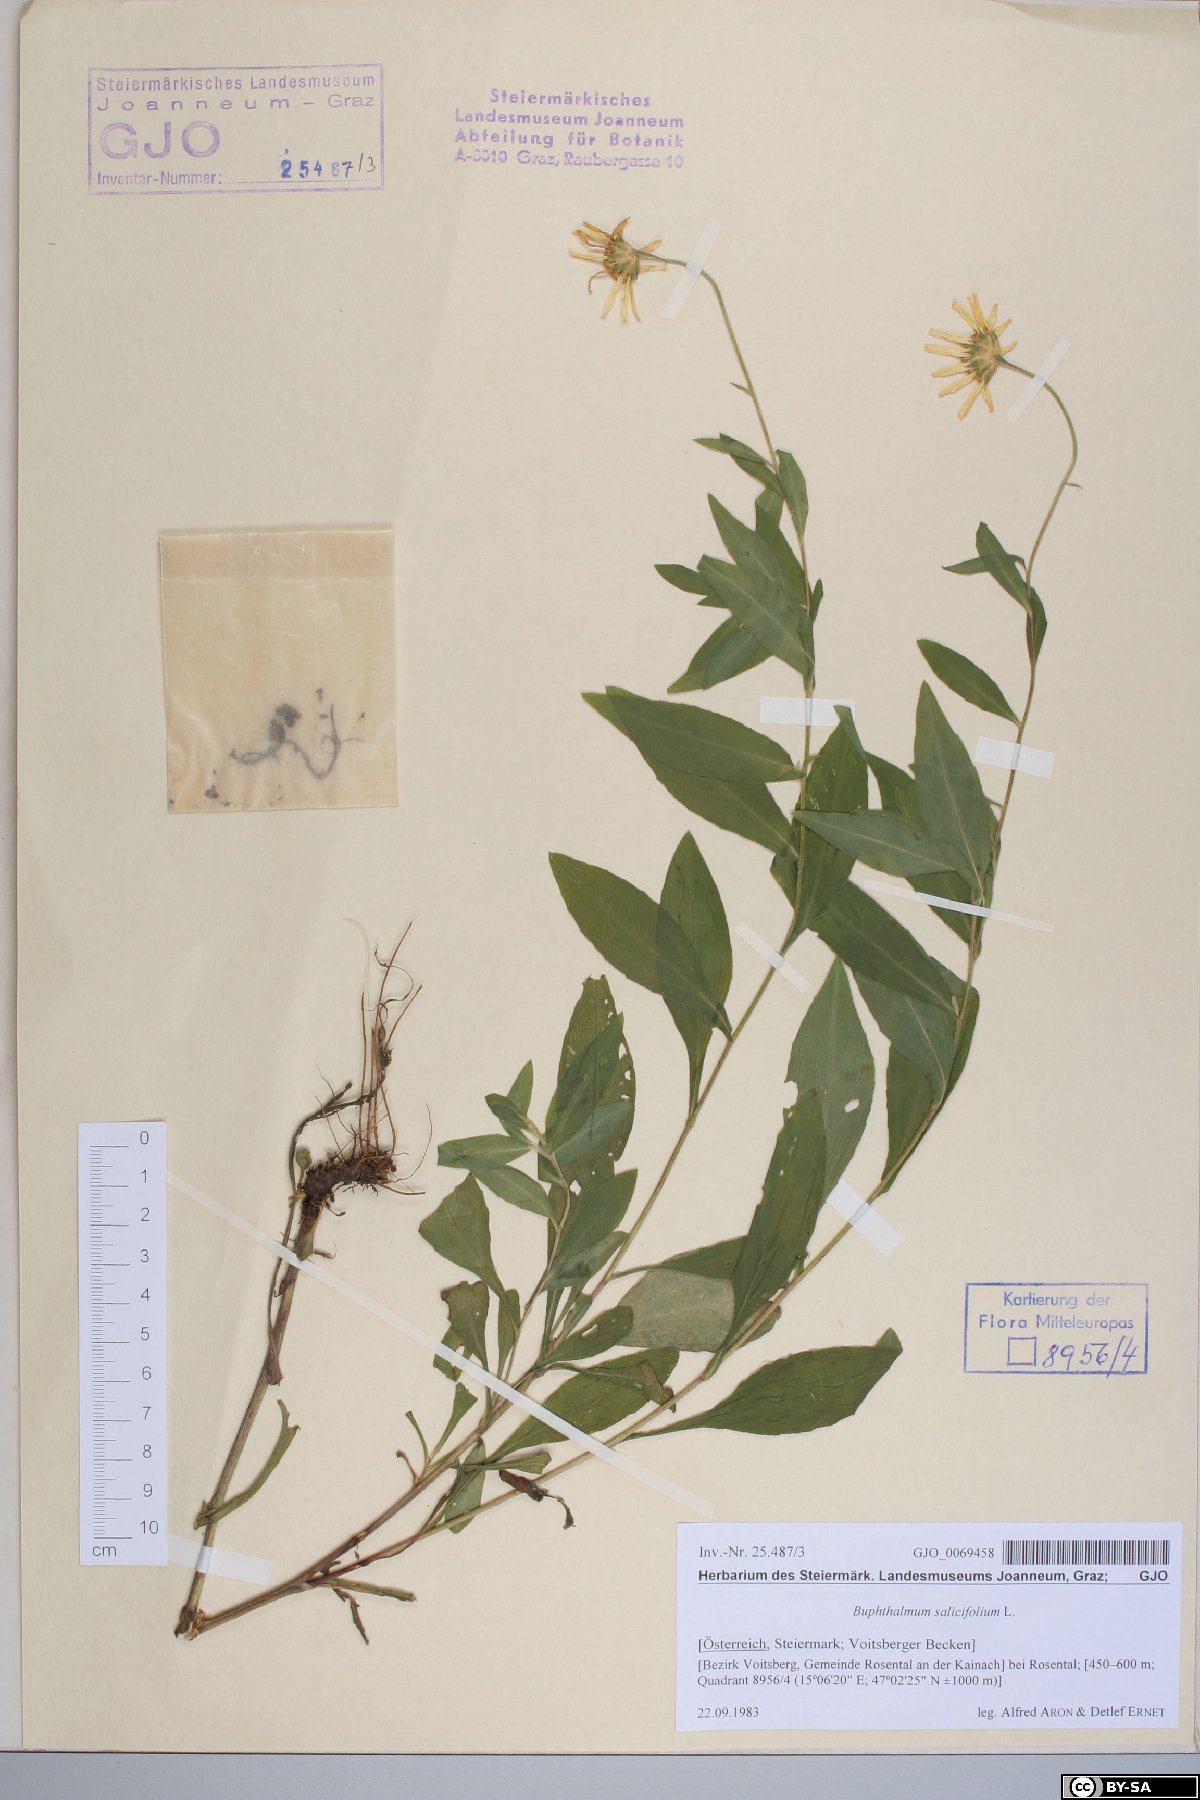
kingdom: Plantae
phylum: Tracheophyta
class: Magnoliopsida
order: Asterales
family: Asteraceae
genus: Buphthalmum
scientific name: Buphthalmum salicifolium
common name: Willow-leaved yellow-oxeye
